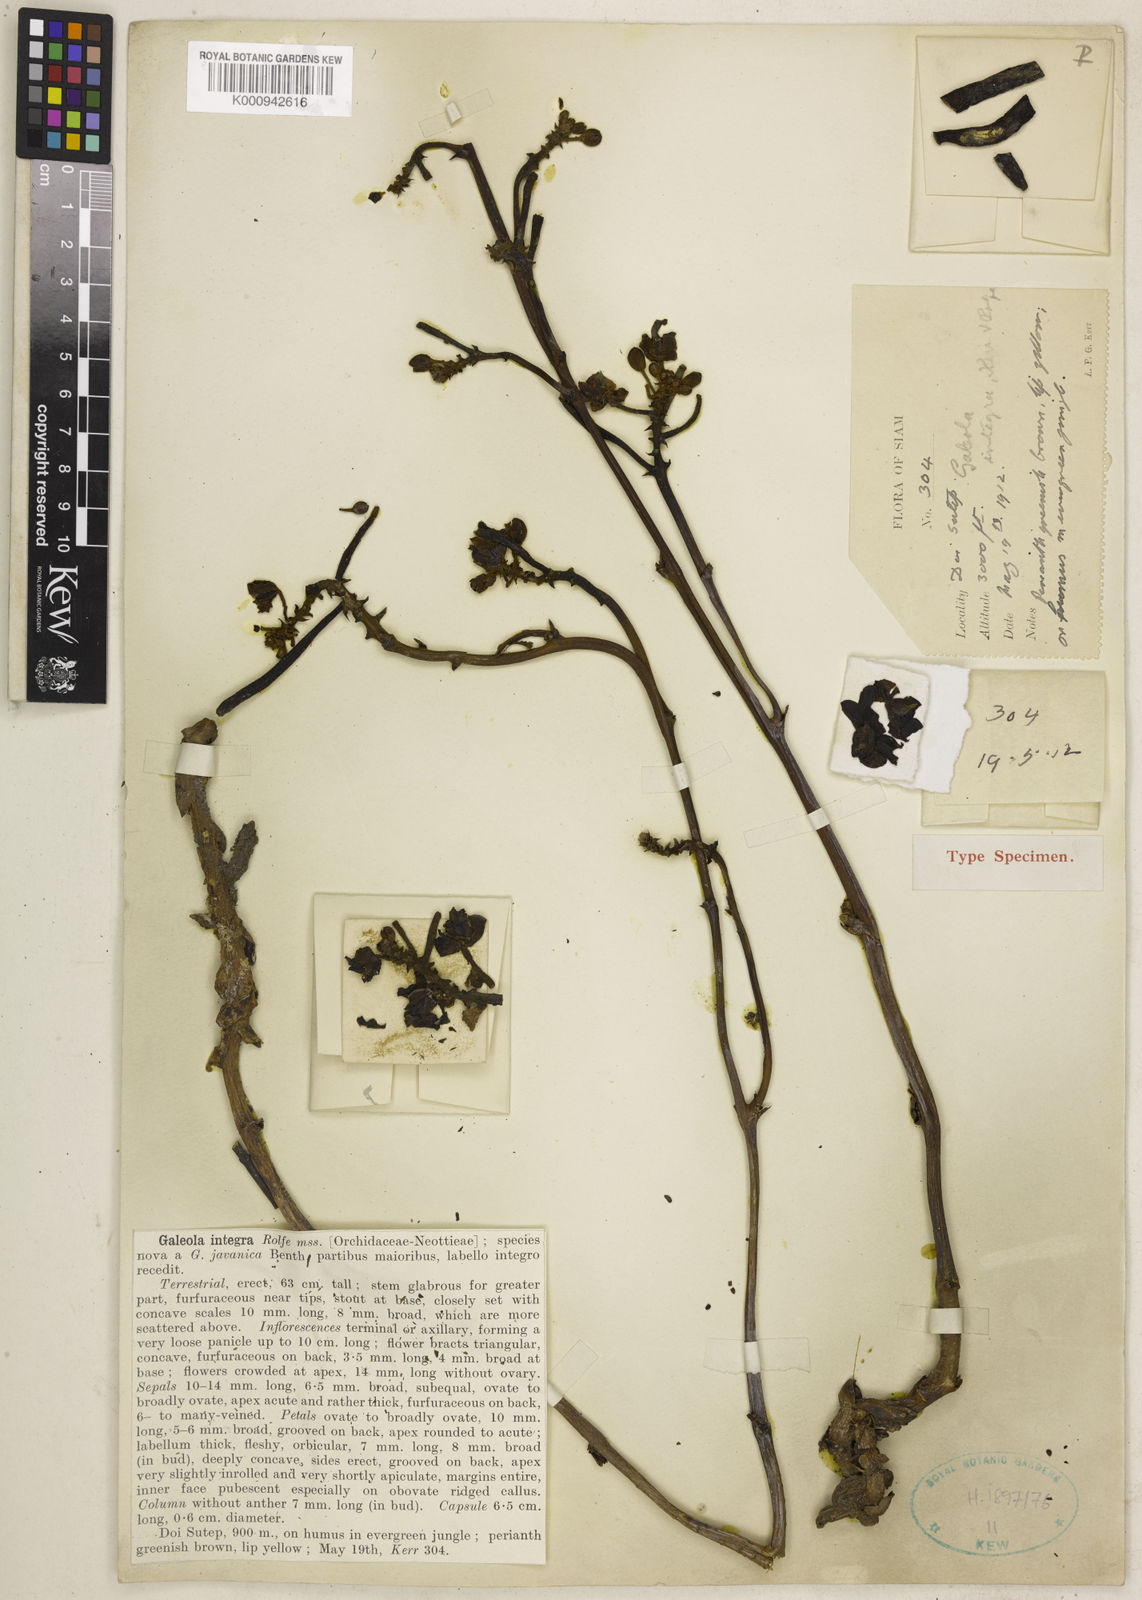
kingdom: Plantae
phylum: Tracheophyta
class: Liliopsida
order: Asparagales
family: Orchidaceae
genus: Cyrtosia
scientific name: Cyrtosia integra
